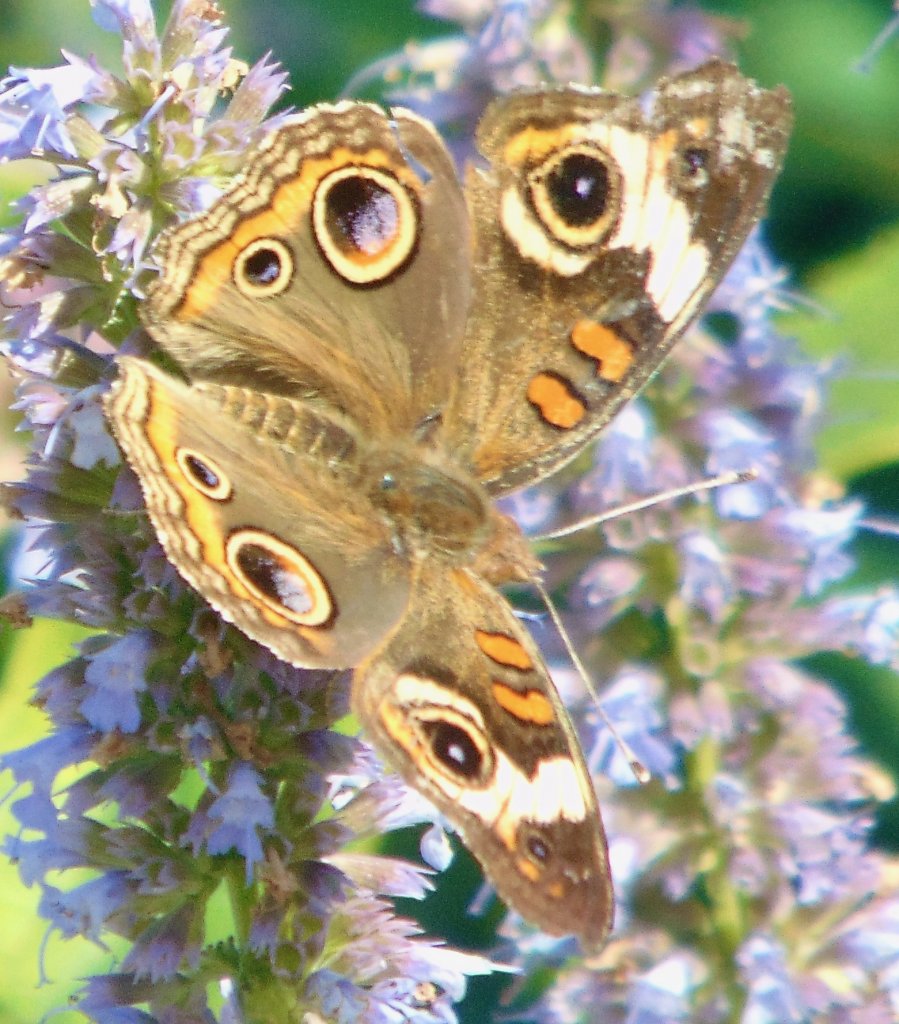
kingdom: Animalia
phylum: Arthropoda
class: Insecta
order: Lepidoptera
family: Nymphalidae
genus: Junonia
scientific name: Junonia coenia
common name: Common Buckeye
